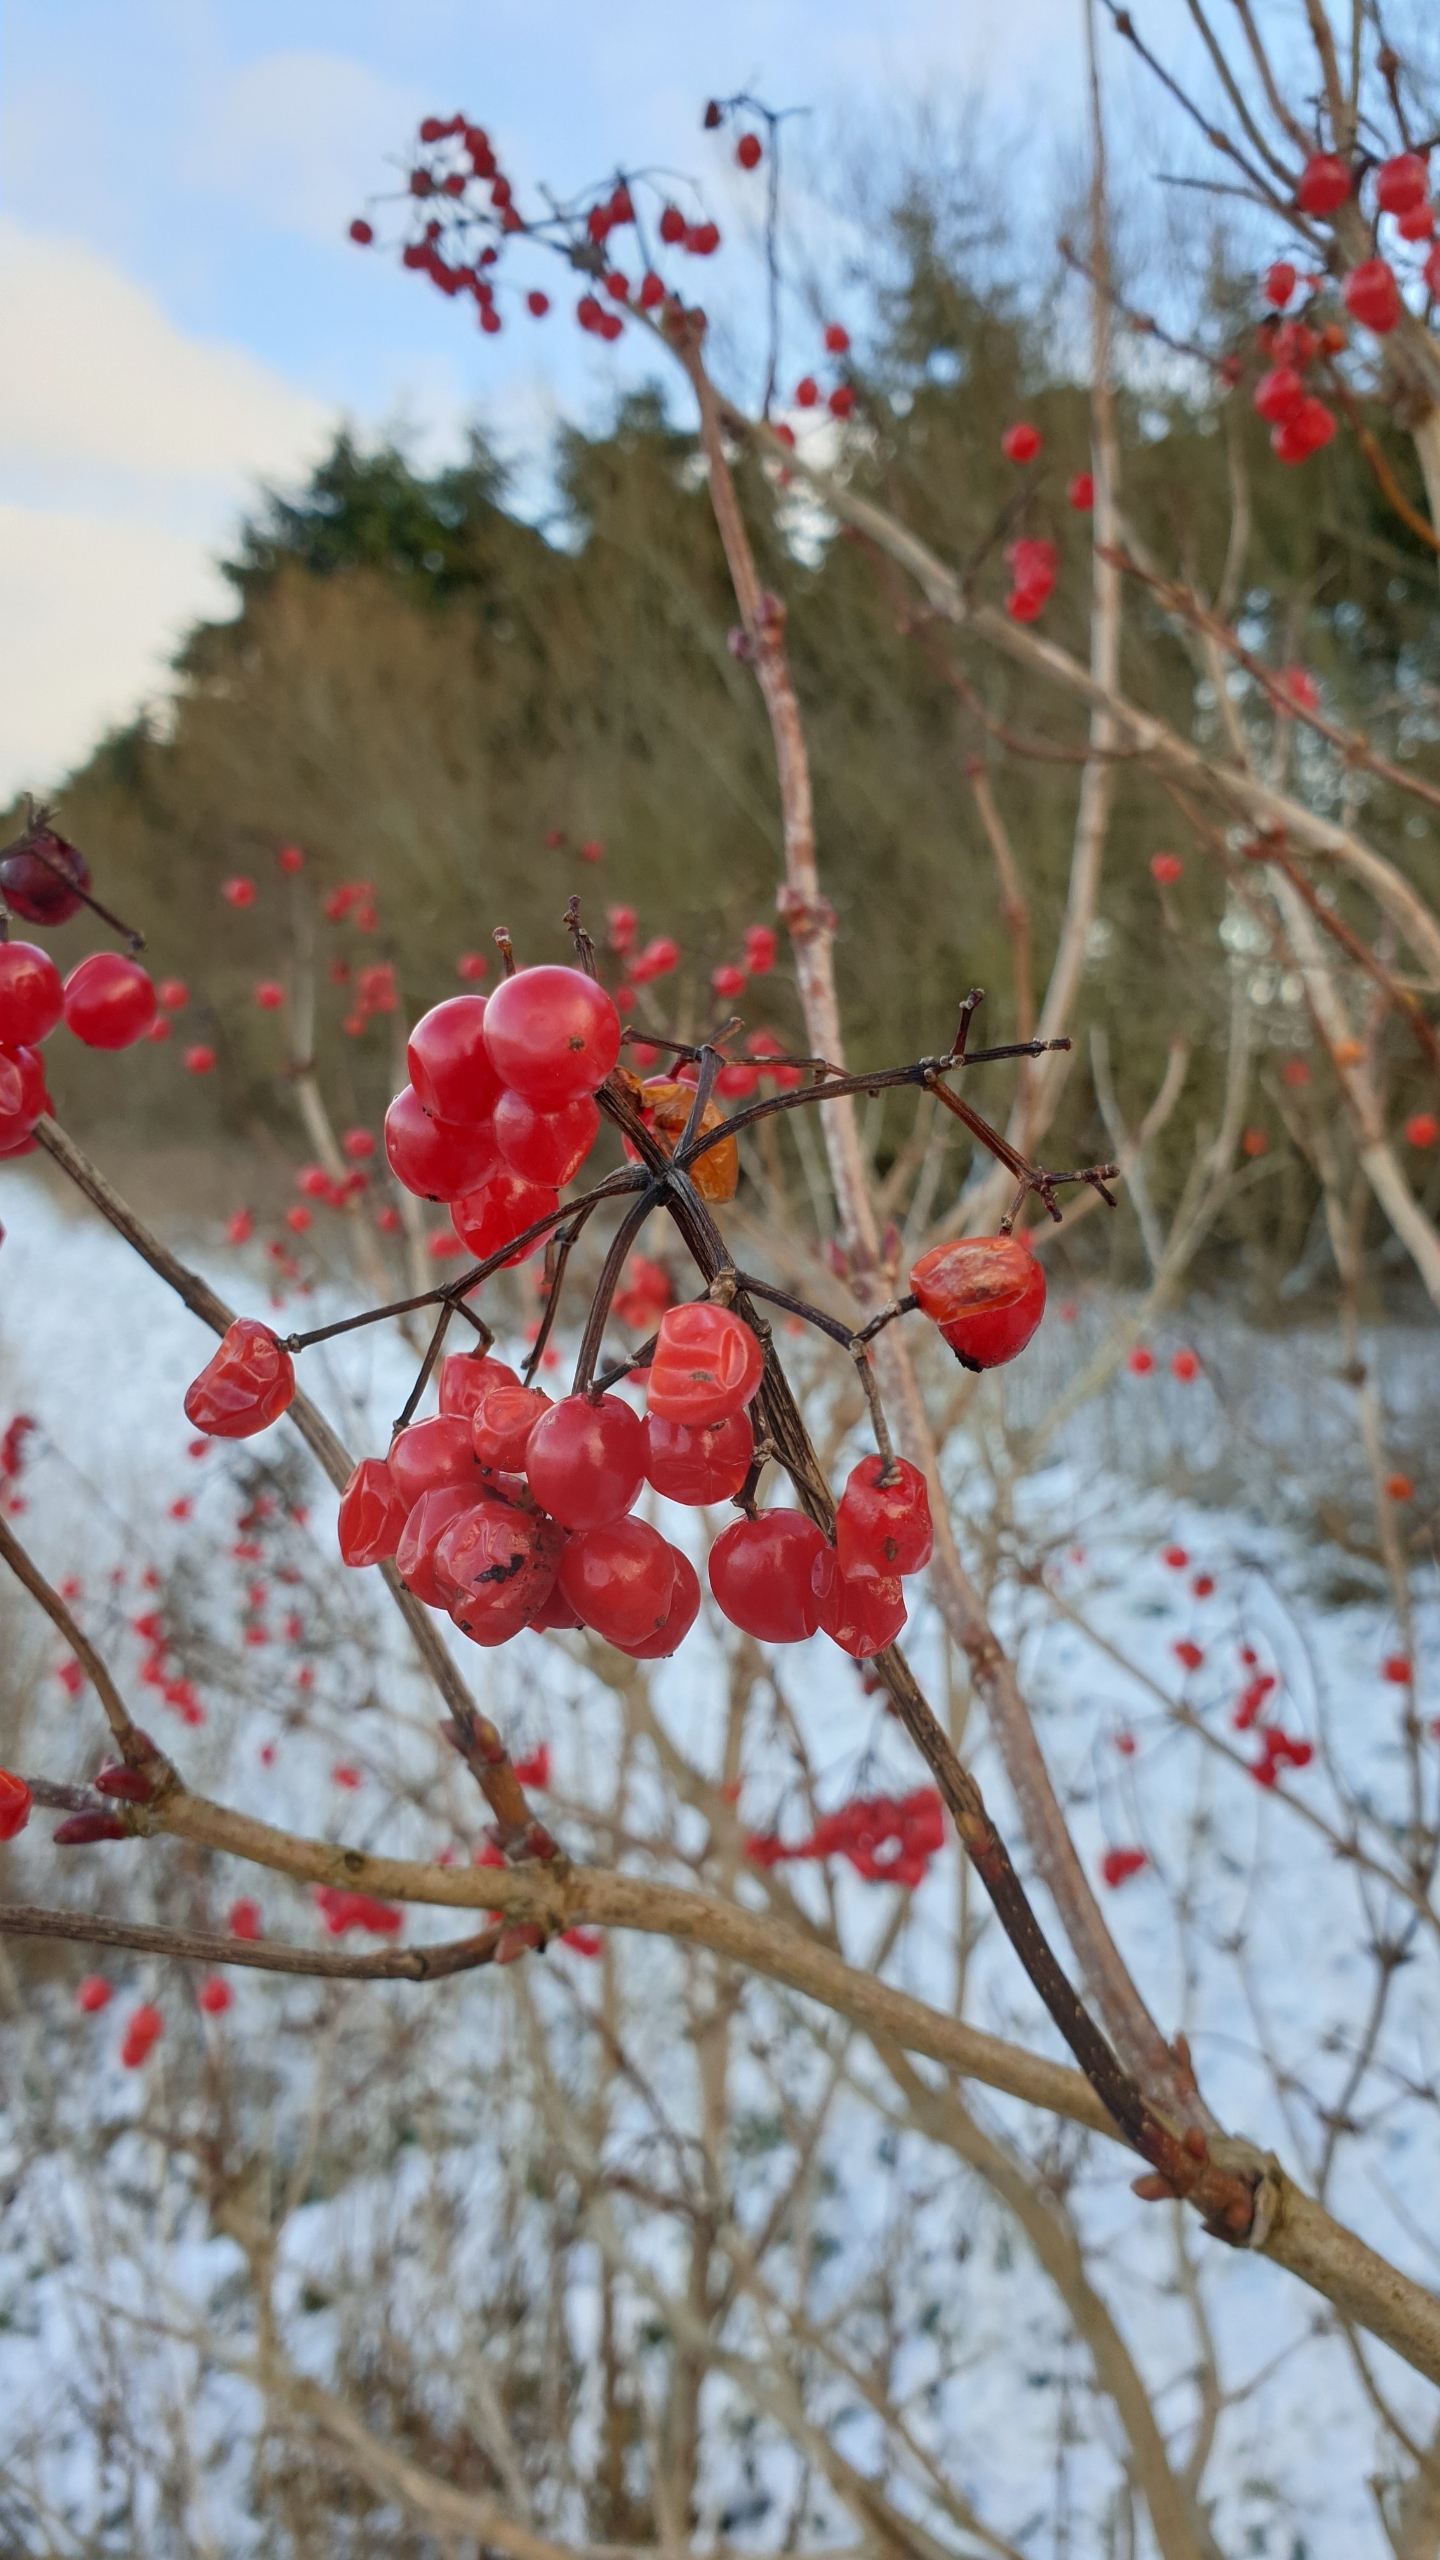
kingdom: Plantae
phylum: Tracheophyta
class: Magnoliopsida
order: Dipsacales
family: Viburnaceae
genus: Viburnum
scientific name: Viburnum opulus
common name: Kvalkved
